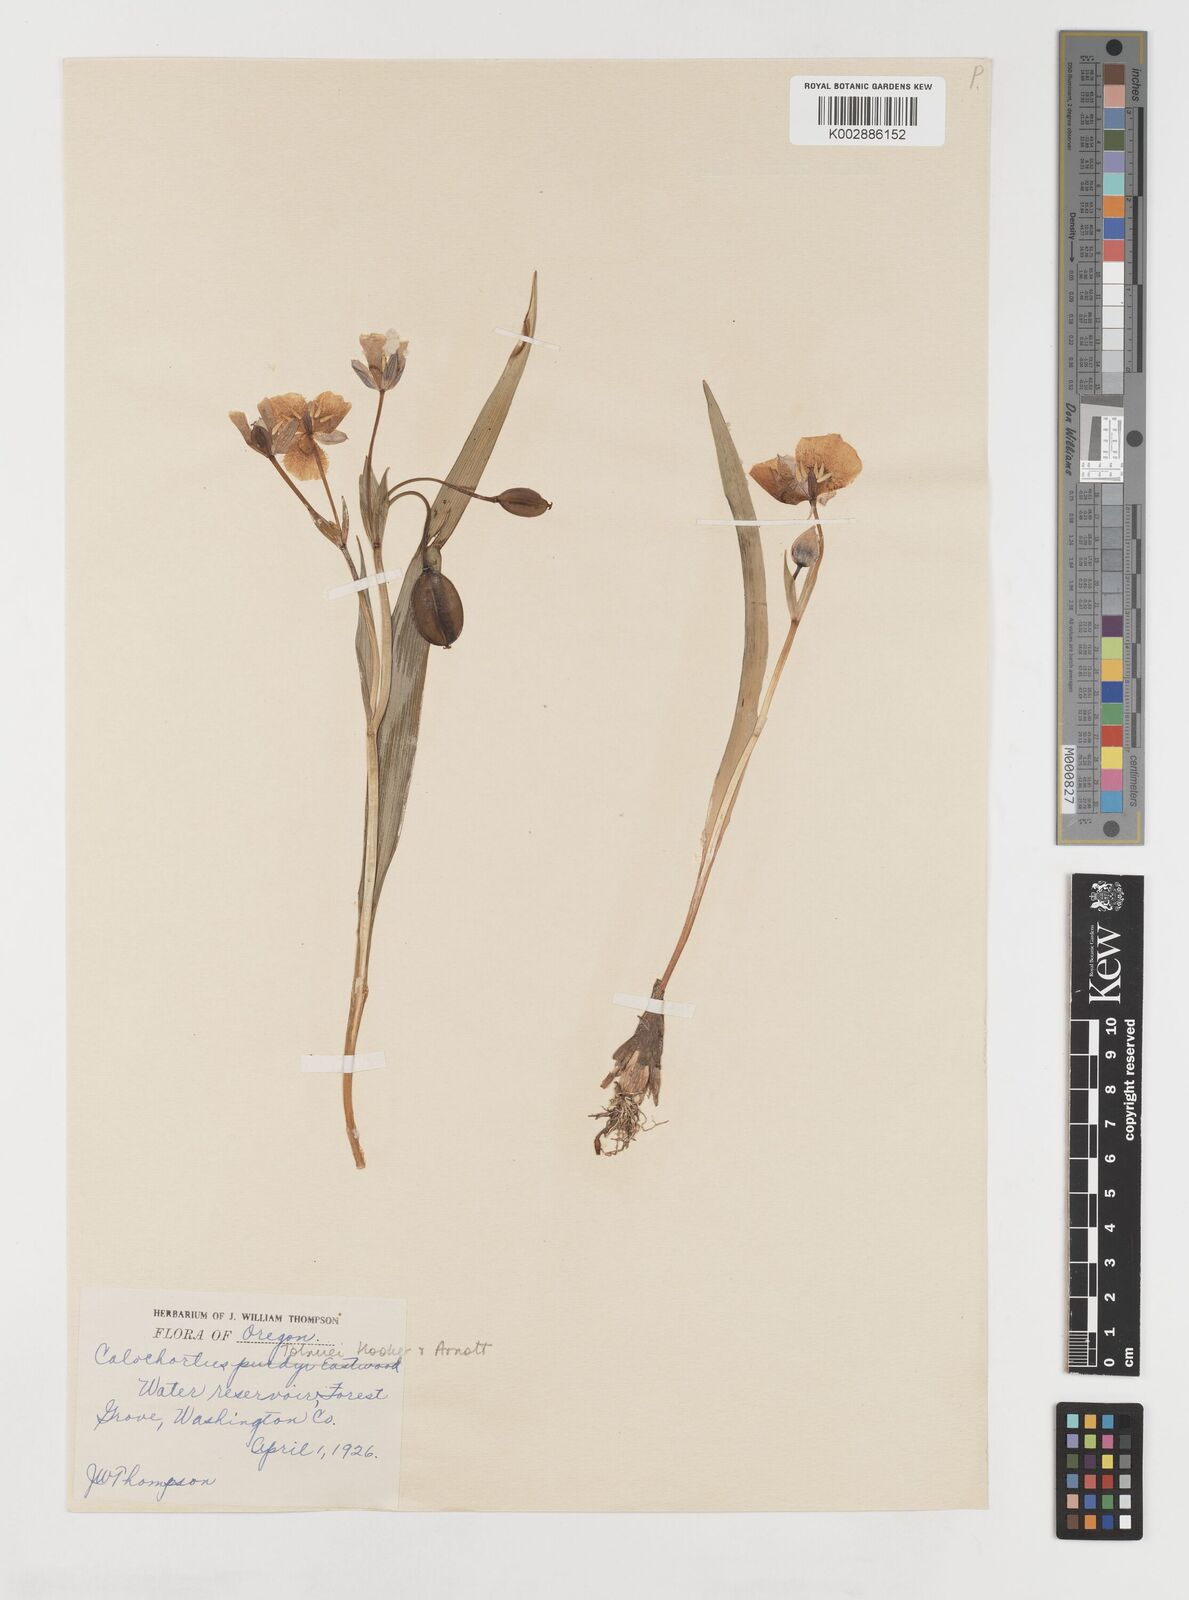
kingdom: Plantae
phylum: Tracheophyta
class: Liliopsida
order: Liliales
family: Liliaceae
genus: Calochortus
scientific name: Calochortus tolmiei
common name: Pussy-ears
